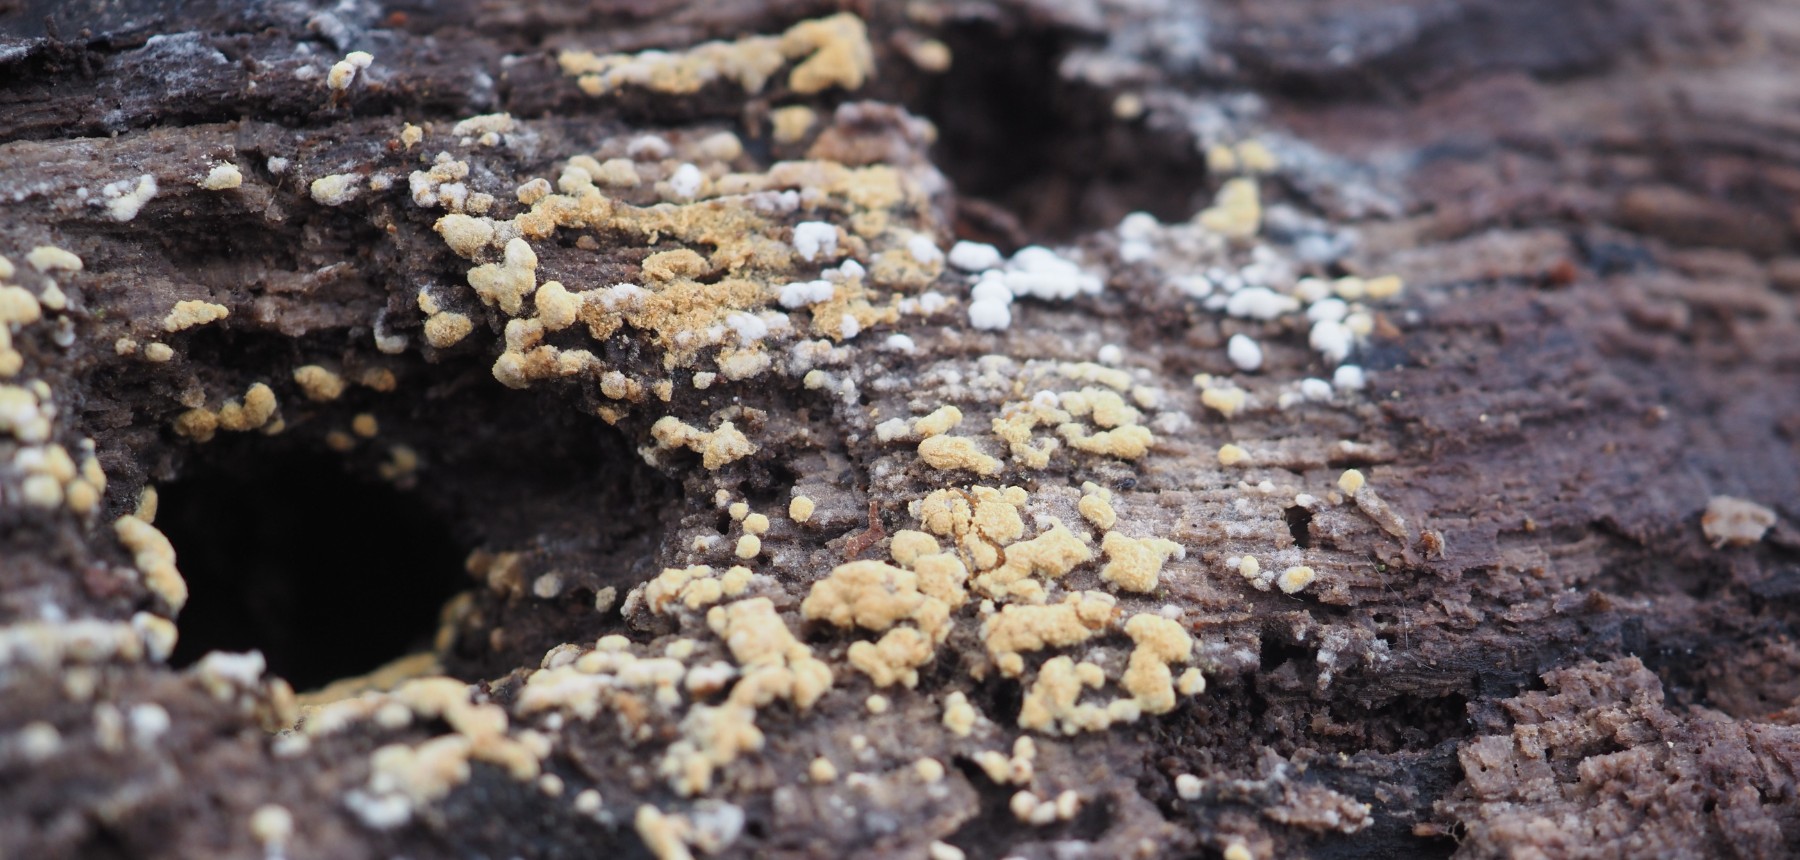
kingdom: Fungi
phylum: Basidiomycota
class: Agaricomycetes
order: Cantharellales
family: Botryobasidiaceae
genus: Botryobasidium
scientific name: Botryobasidium aureum
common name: gylden spindhinde
